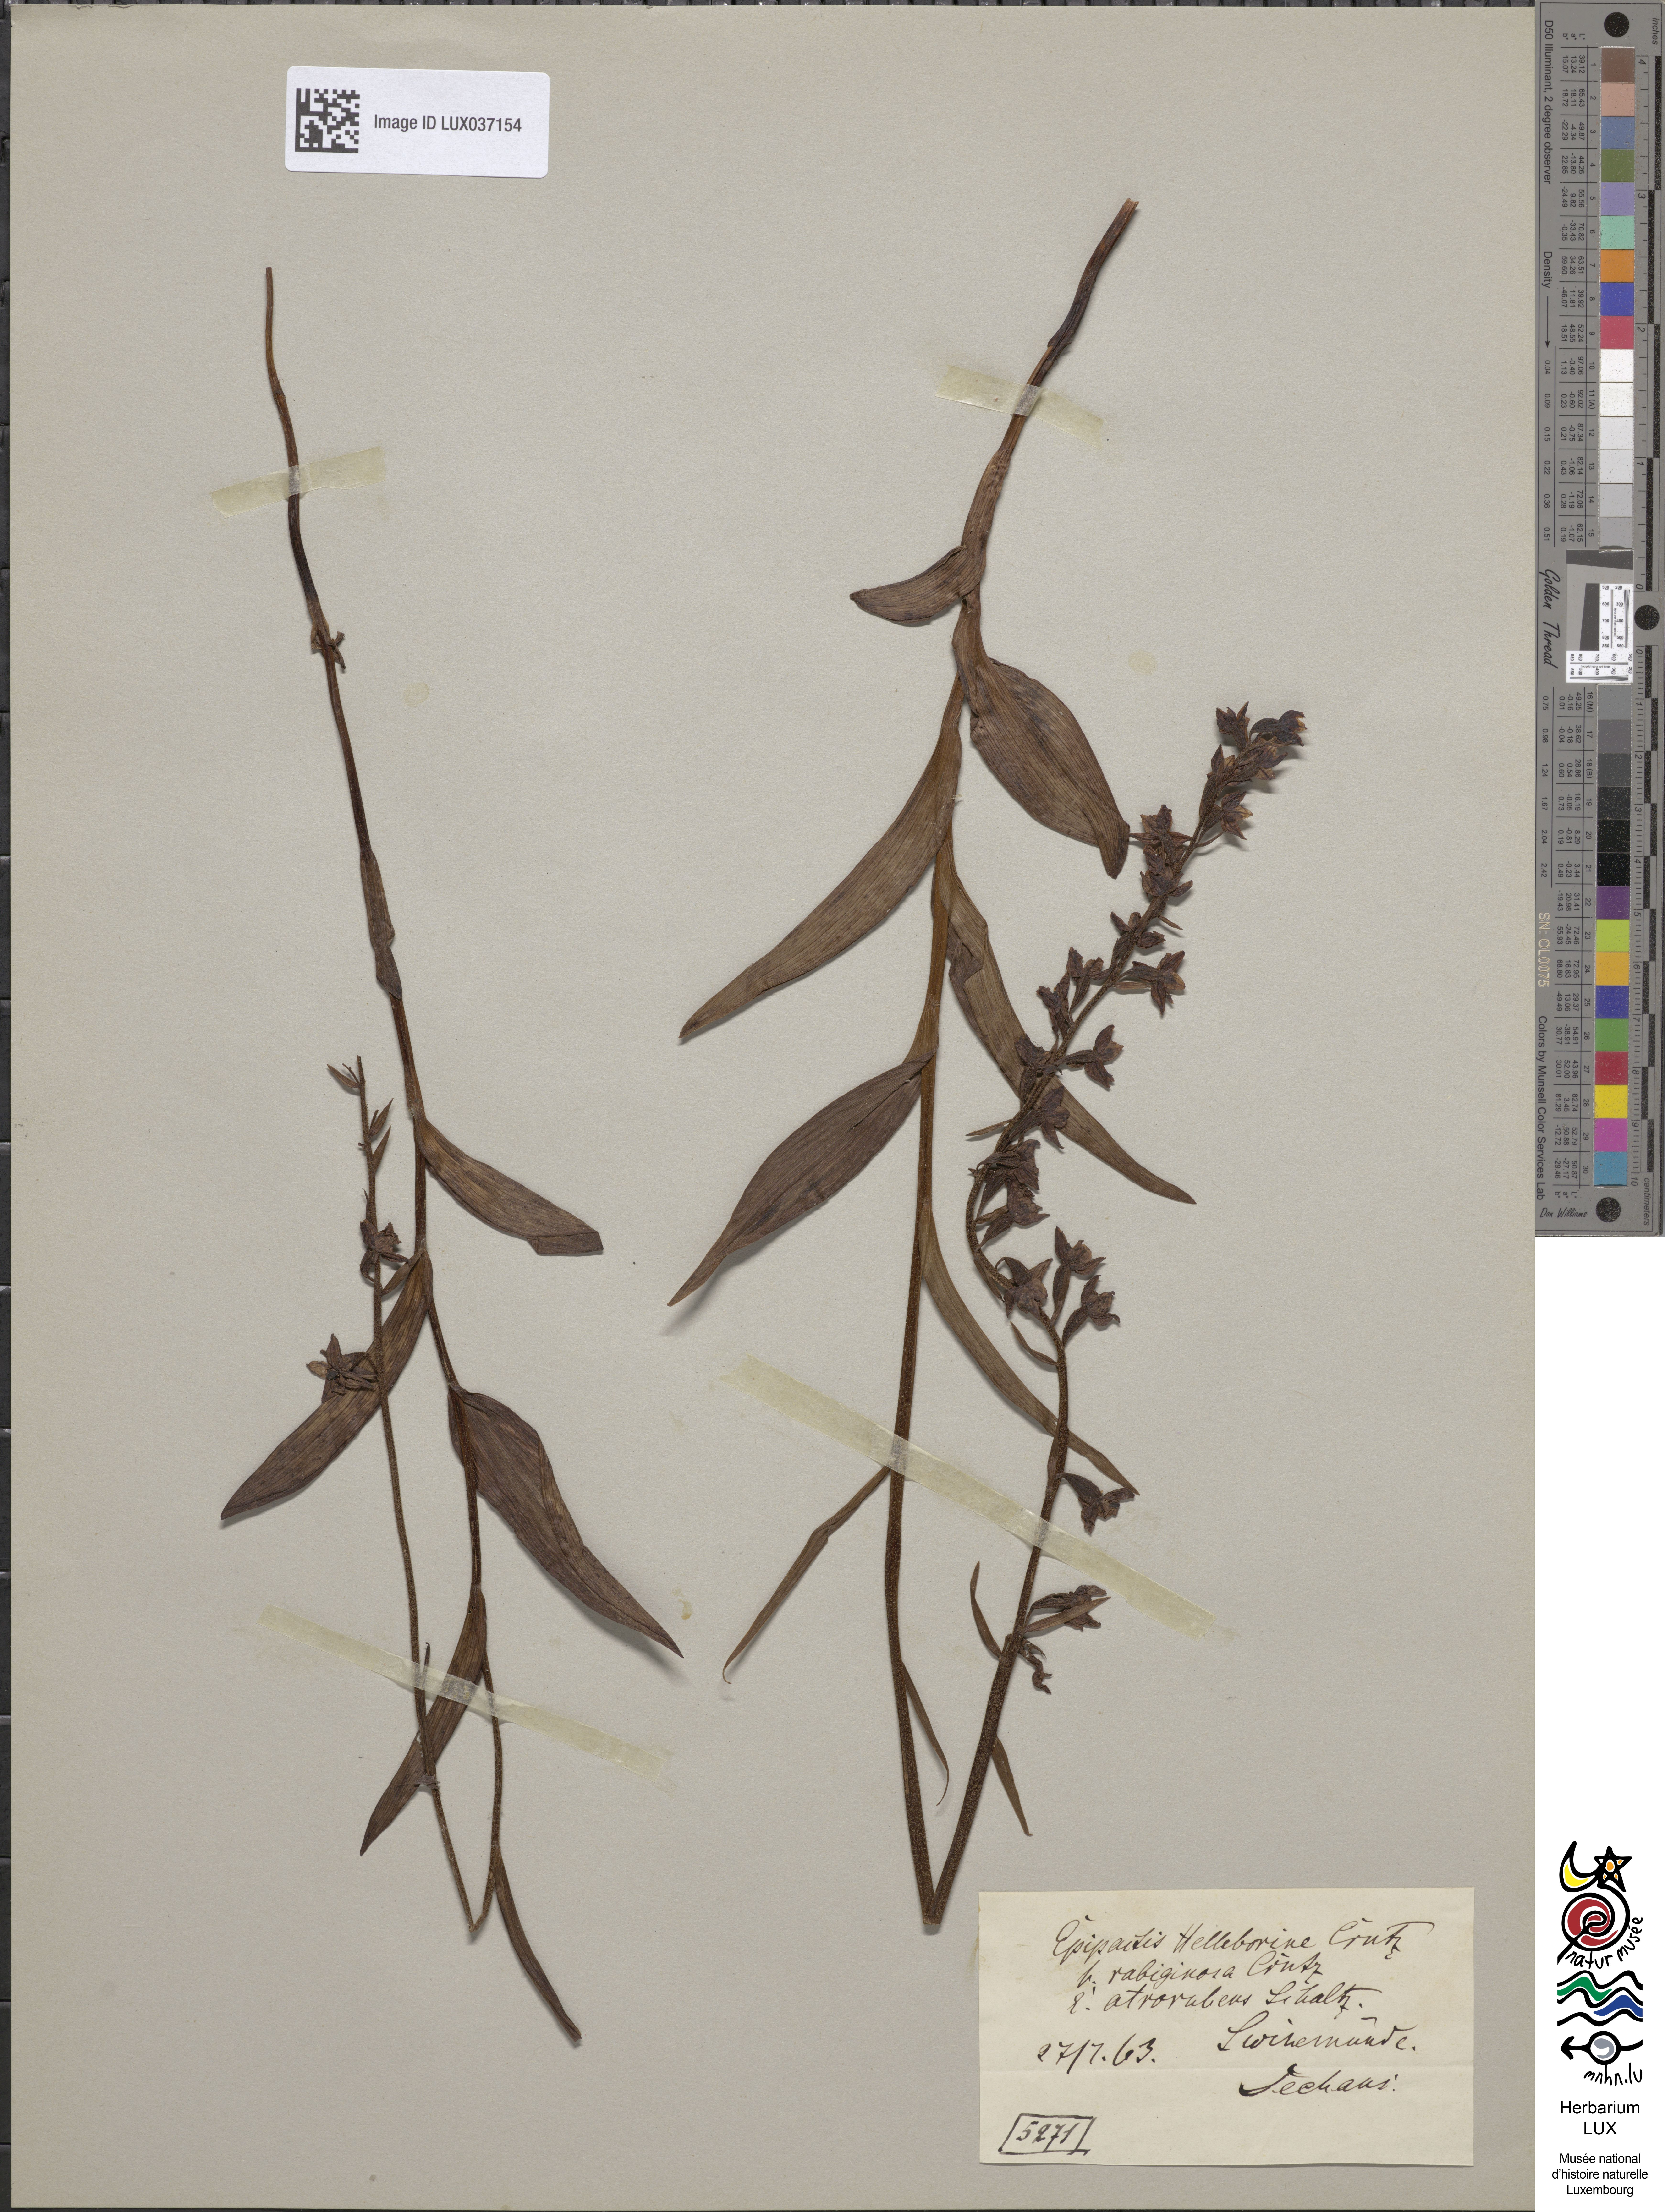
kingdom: Plantae
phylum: Tracheophyta
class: Liliopsida
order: Asparagales
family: Orchidaceae
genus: Epipactis
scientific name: Epipactis atrorubens
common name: Dark-red helleborine
